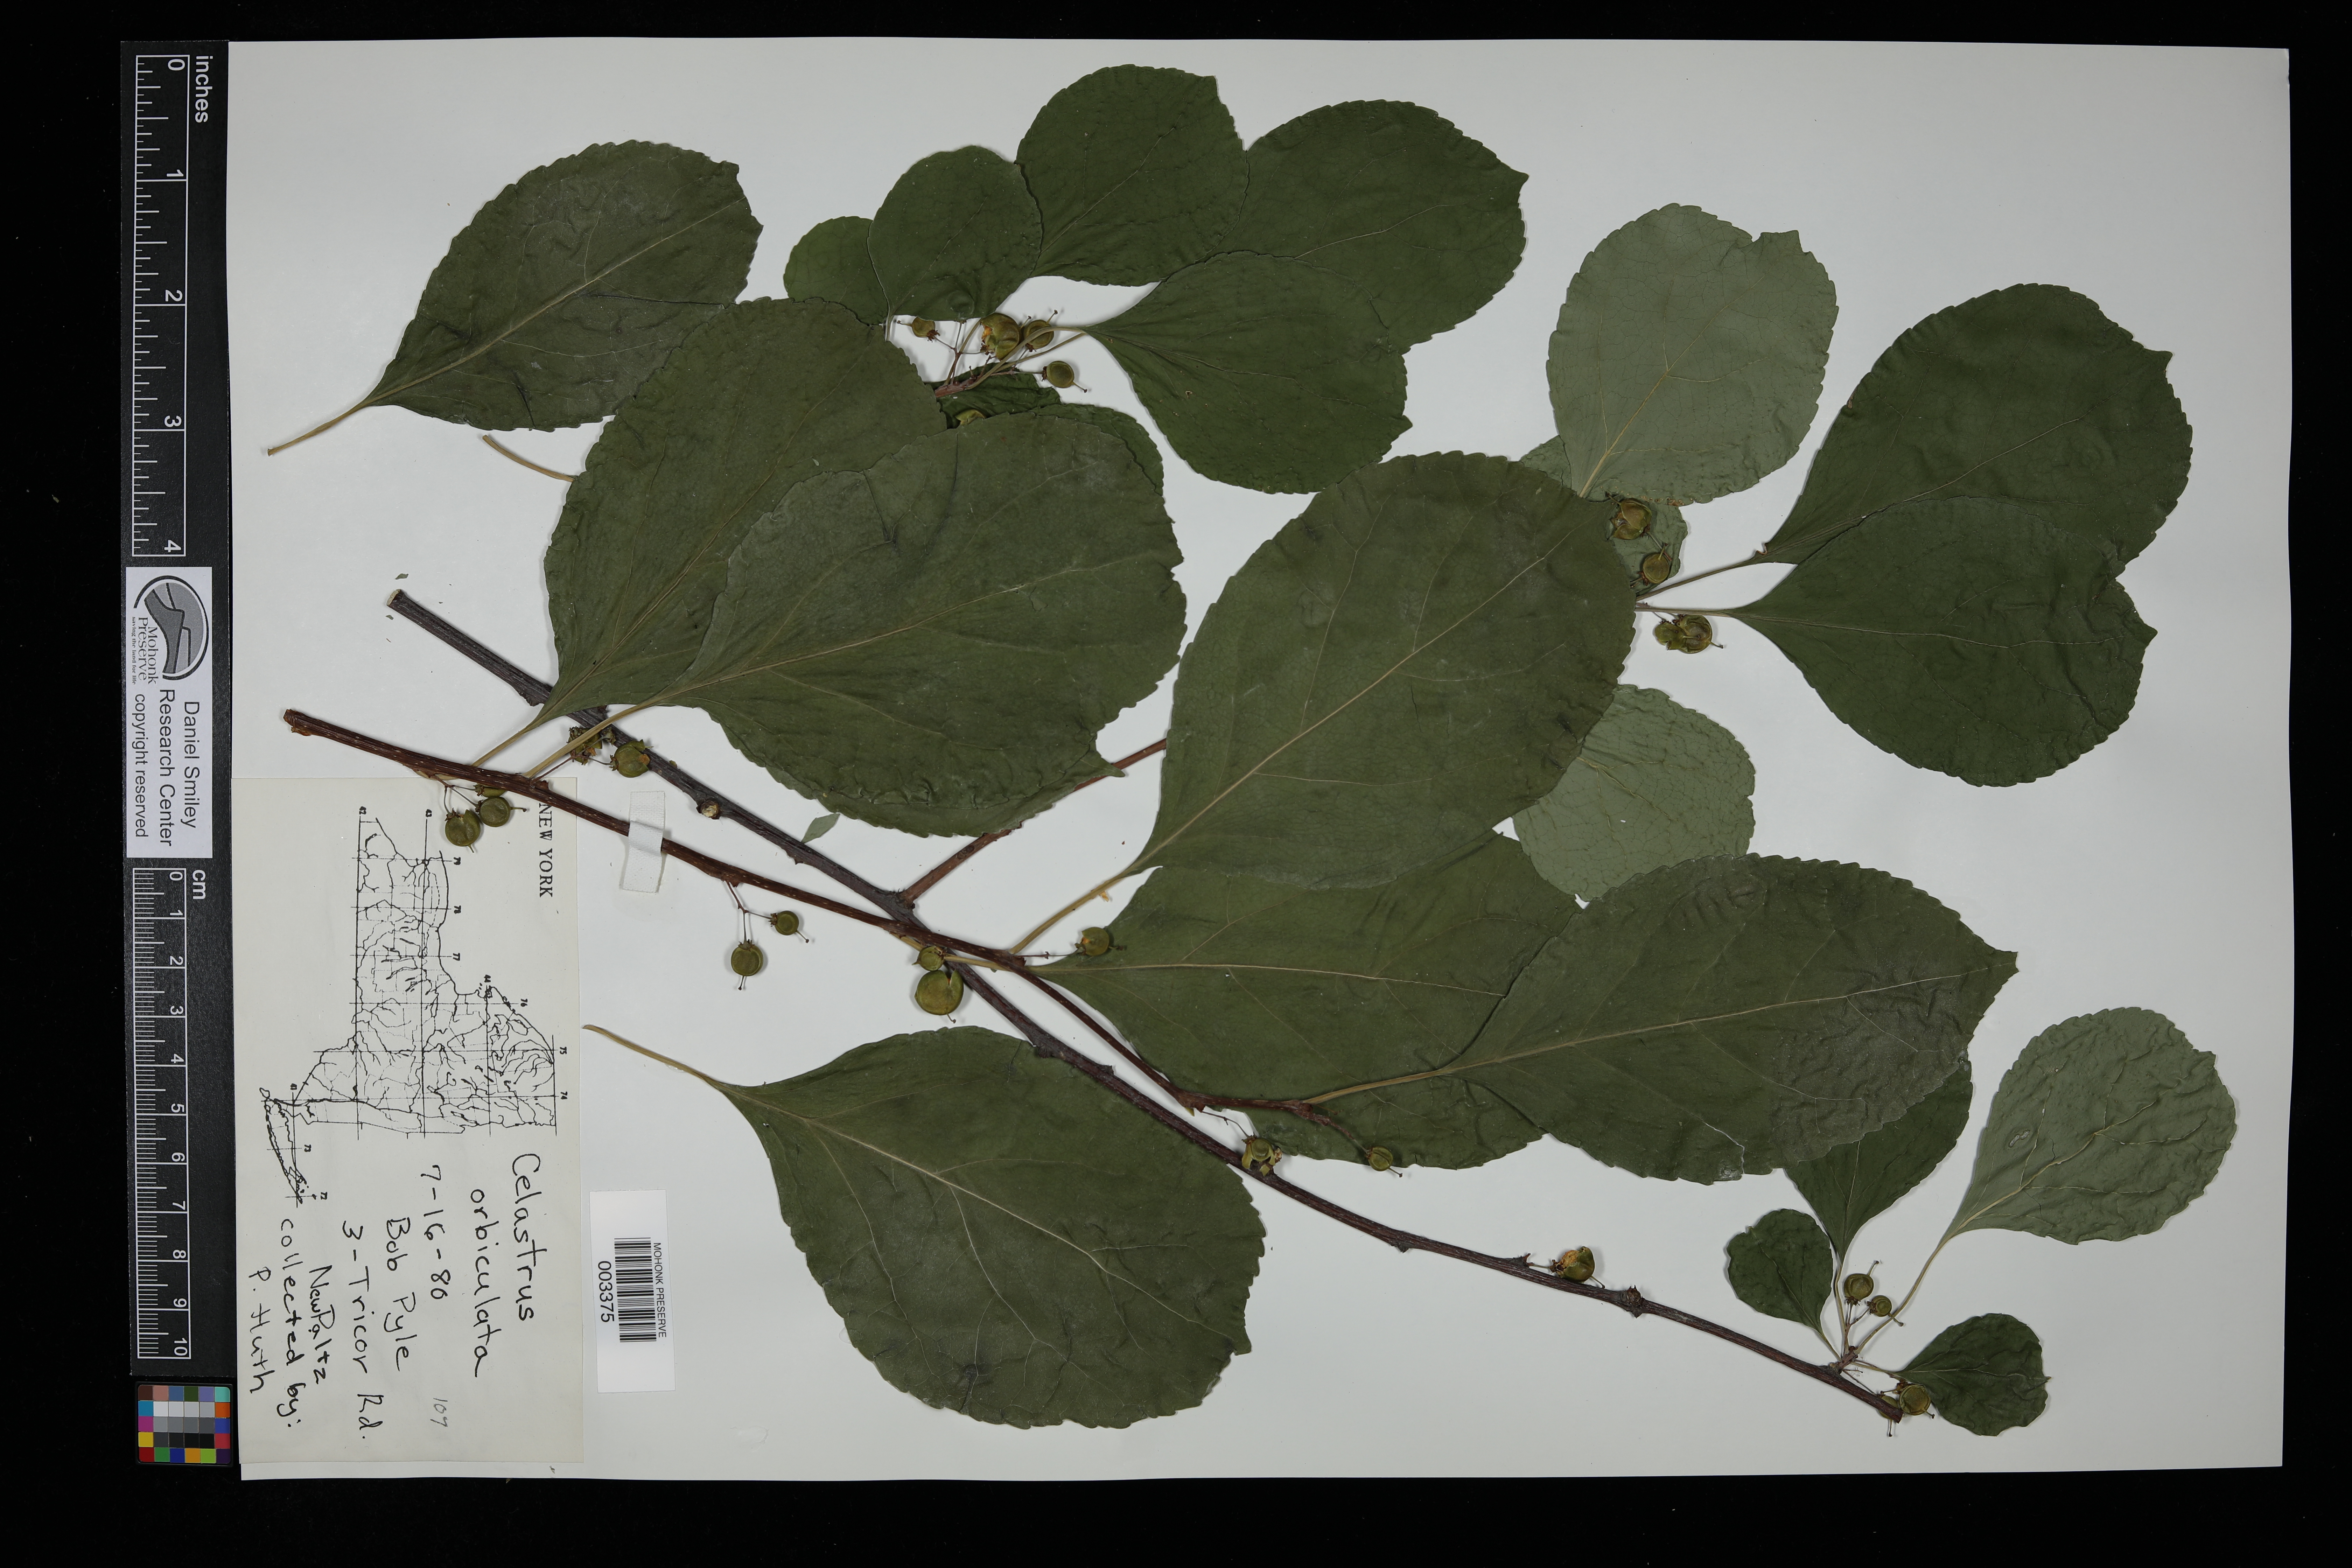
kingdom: Plantae
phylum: Tracheophyta
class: Magnoliopsida
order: Celastrales
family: Celastraceae
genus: Celastrus
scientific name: Celastrus orbiculatus
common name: Oriental bittersweet
